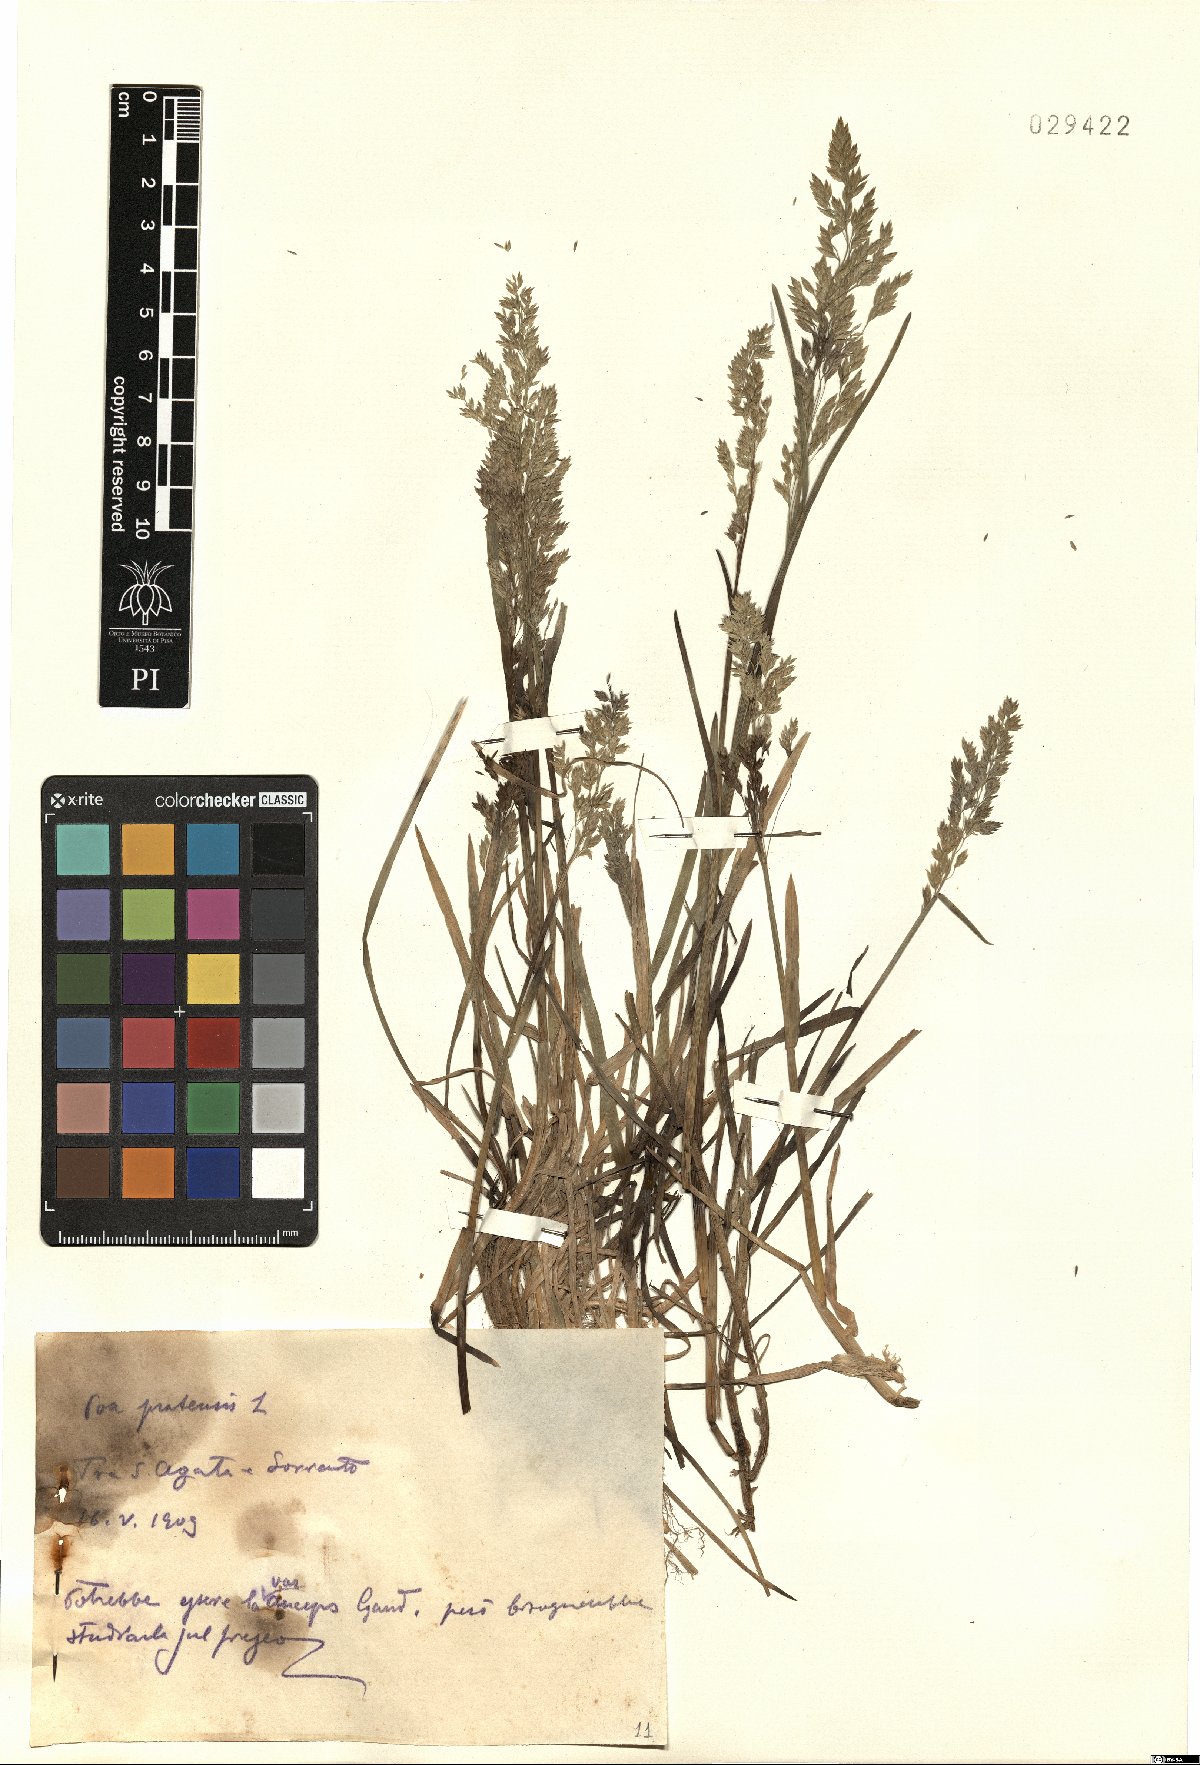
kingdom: Plantae
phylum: Tracheophyta
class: Liliopsida
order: Poales
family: Poaceae
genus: Poa
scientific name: Poa pratensis
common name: Kentucky bluegrass
